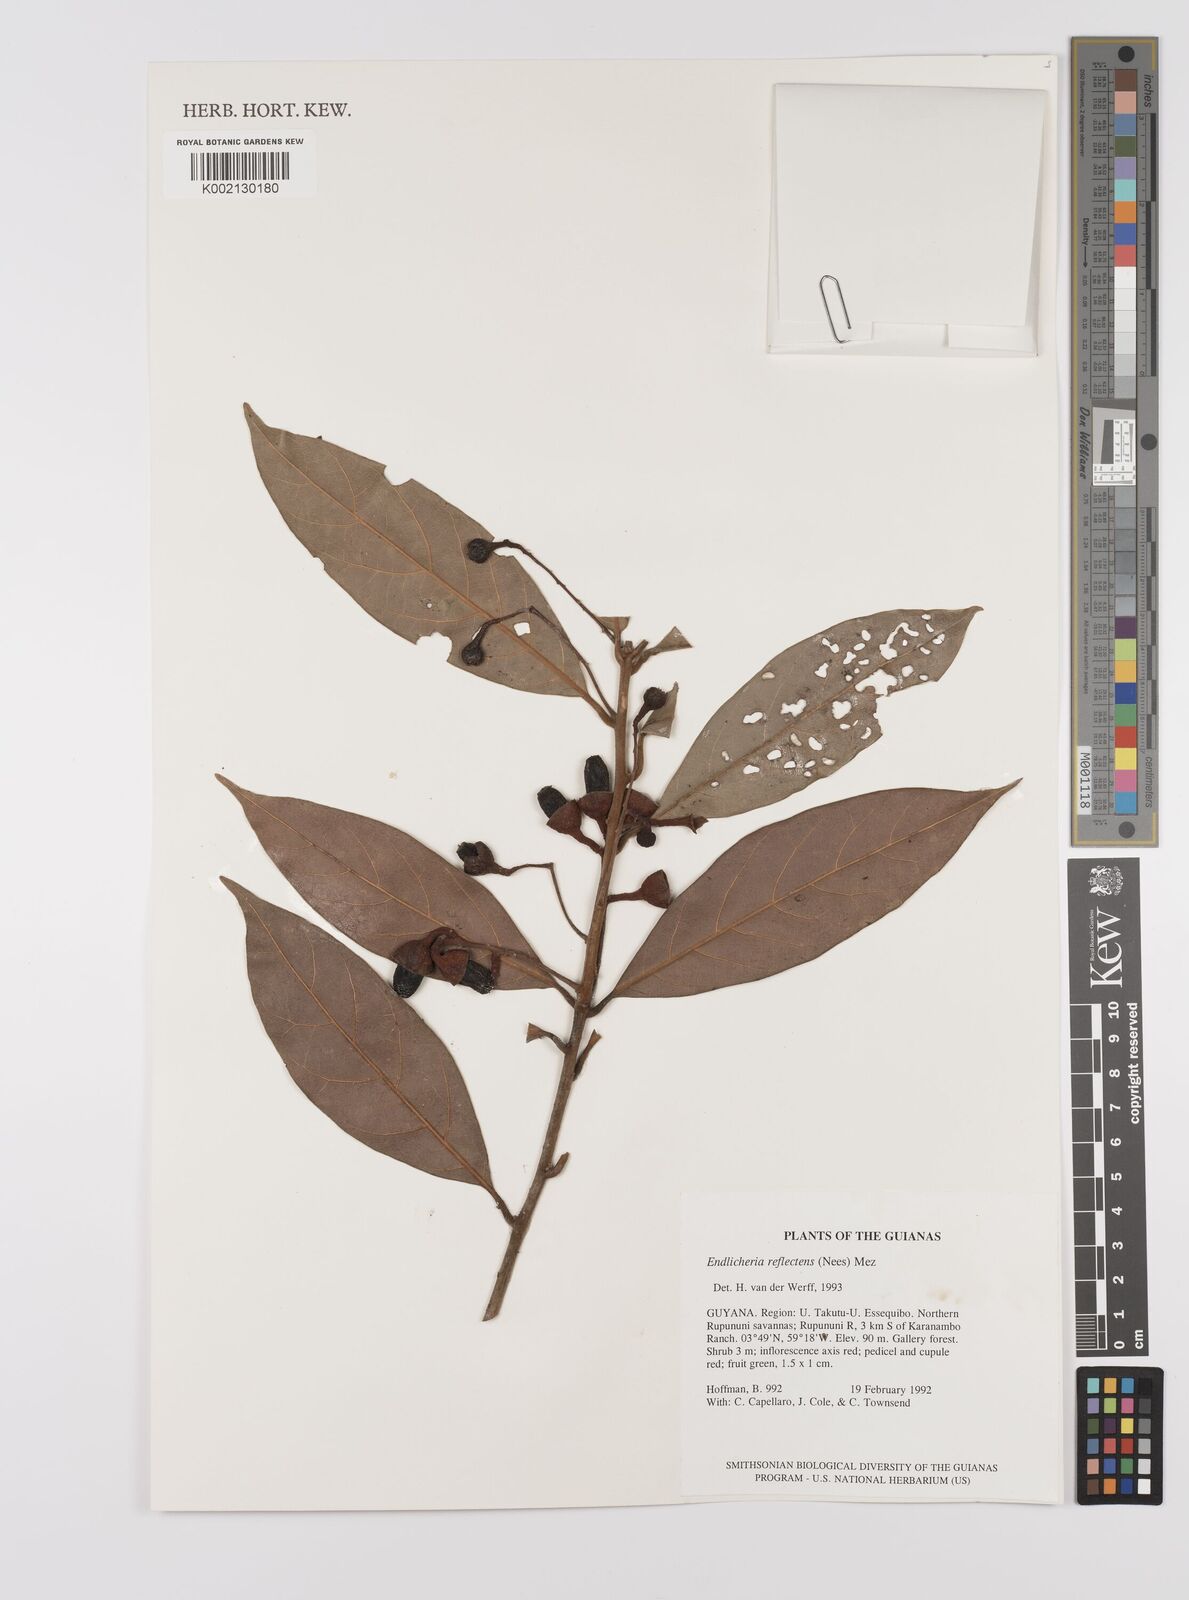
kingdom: Plantae
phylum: Tracheophyta
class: Magnoliopsida
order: Laurales
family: Lauraceae
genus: Endlicheria
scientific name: Endlicheria reflectens
